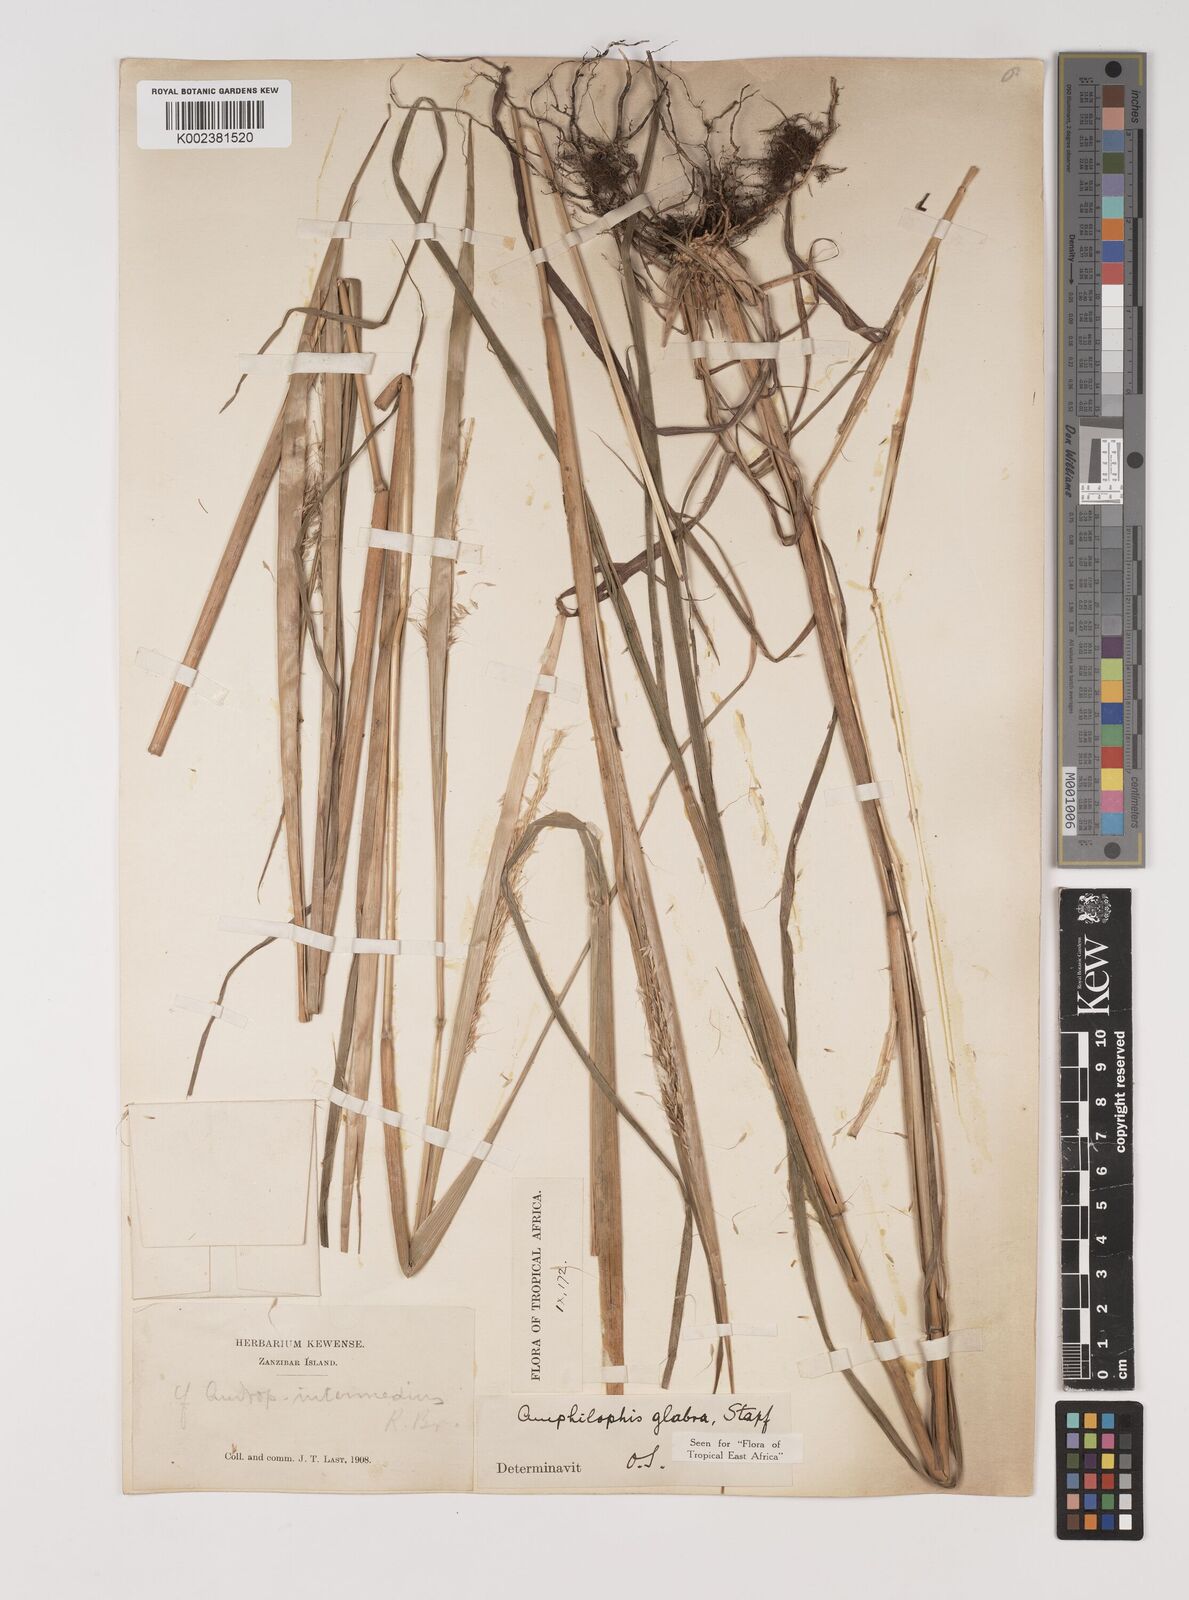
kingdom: Plantae
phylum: Tracheophyta
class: Liliopsida
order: Poales
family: Poaceae
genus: Bothriochloa
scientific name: Bothriochloa
